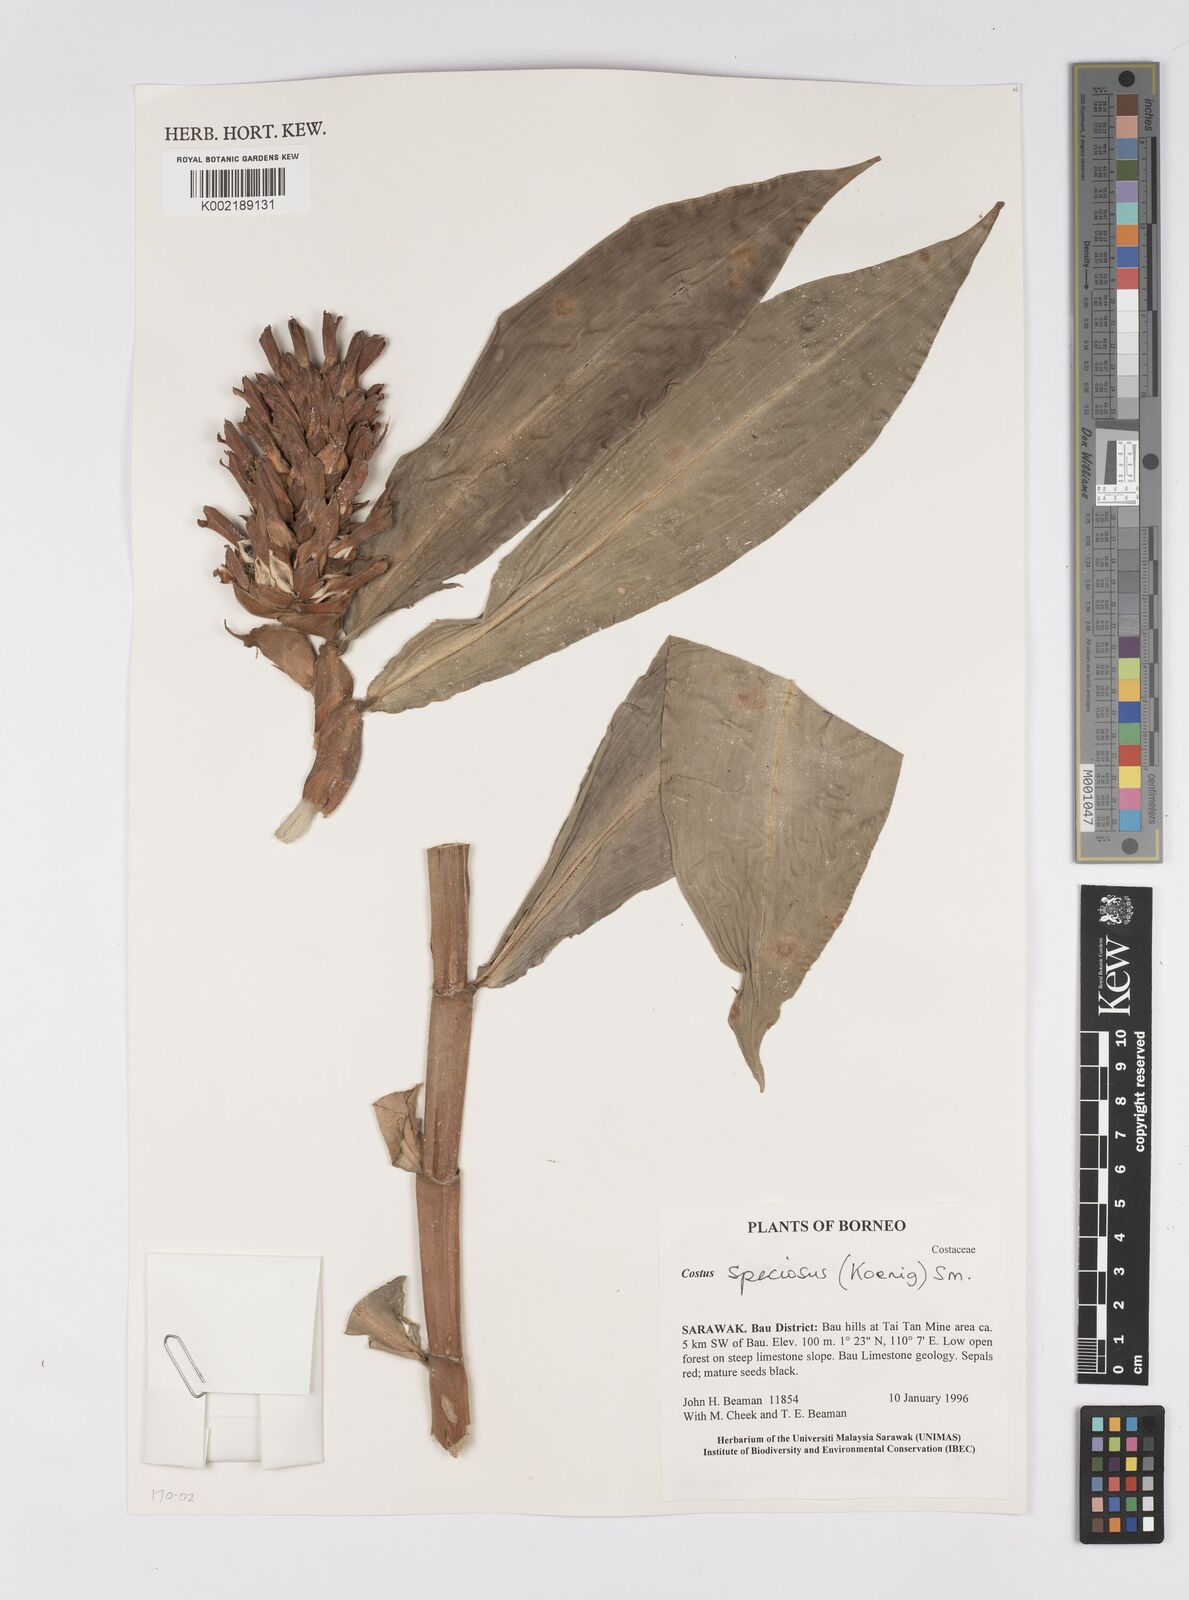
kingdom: Plantae
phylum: Tracheophyta
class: Liliopsida
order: Zingiberales
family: Costaceae
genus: Hellenia
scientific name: Hellenia speciosa
